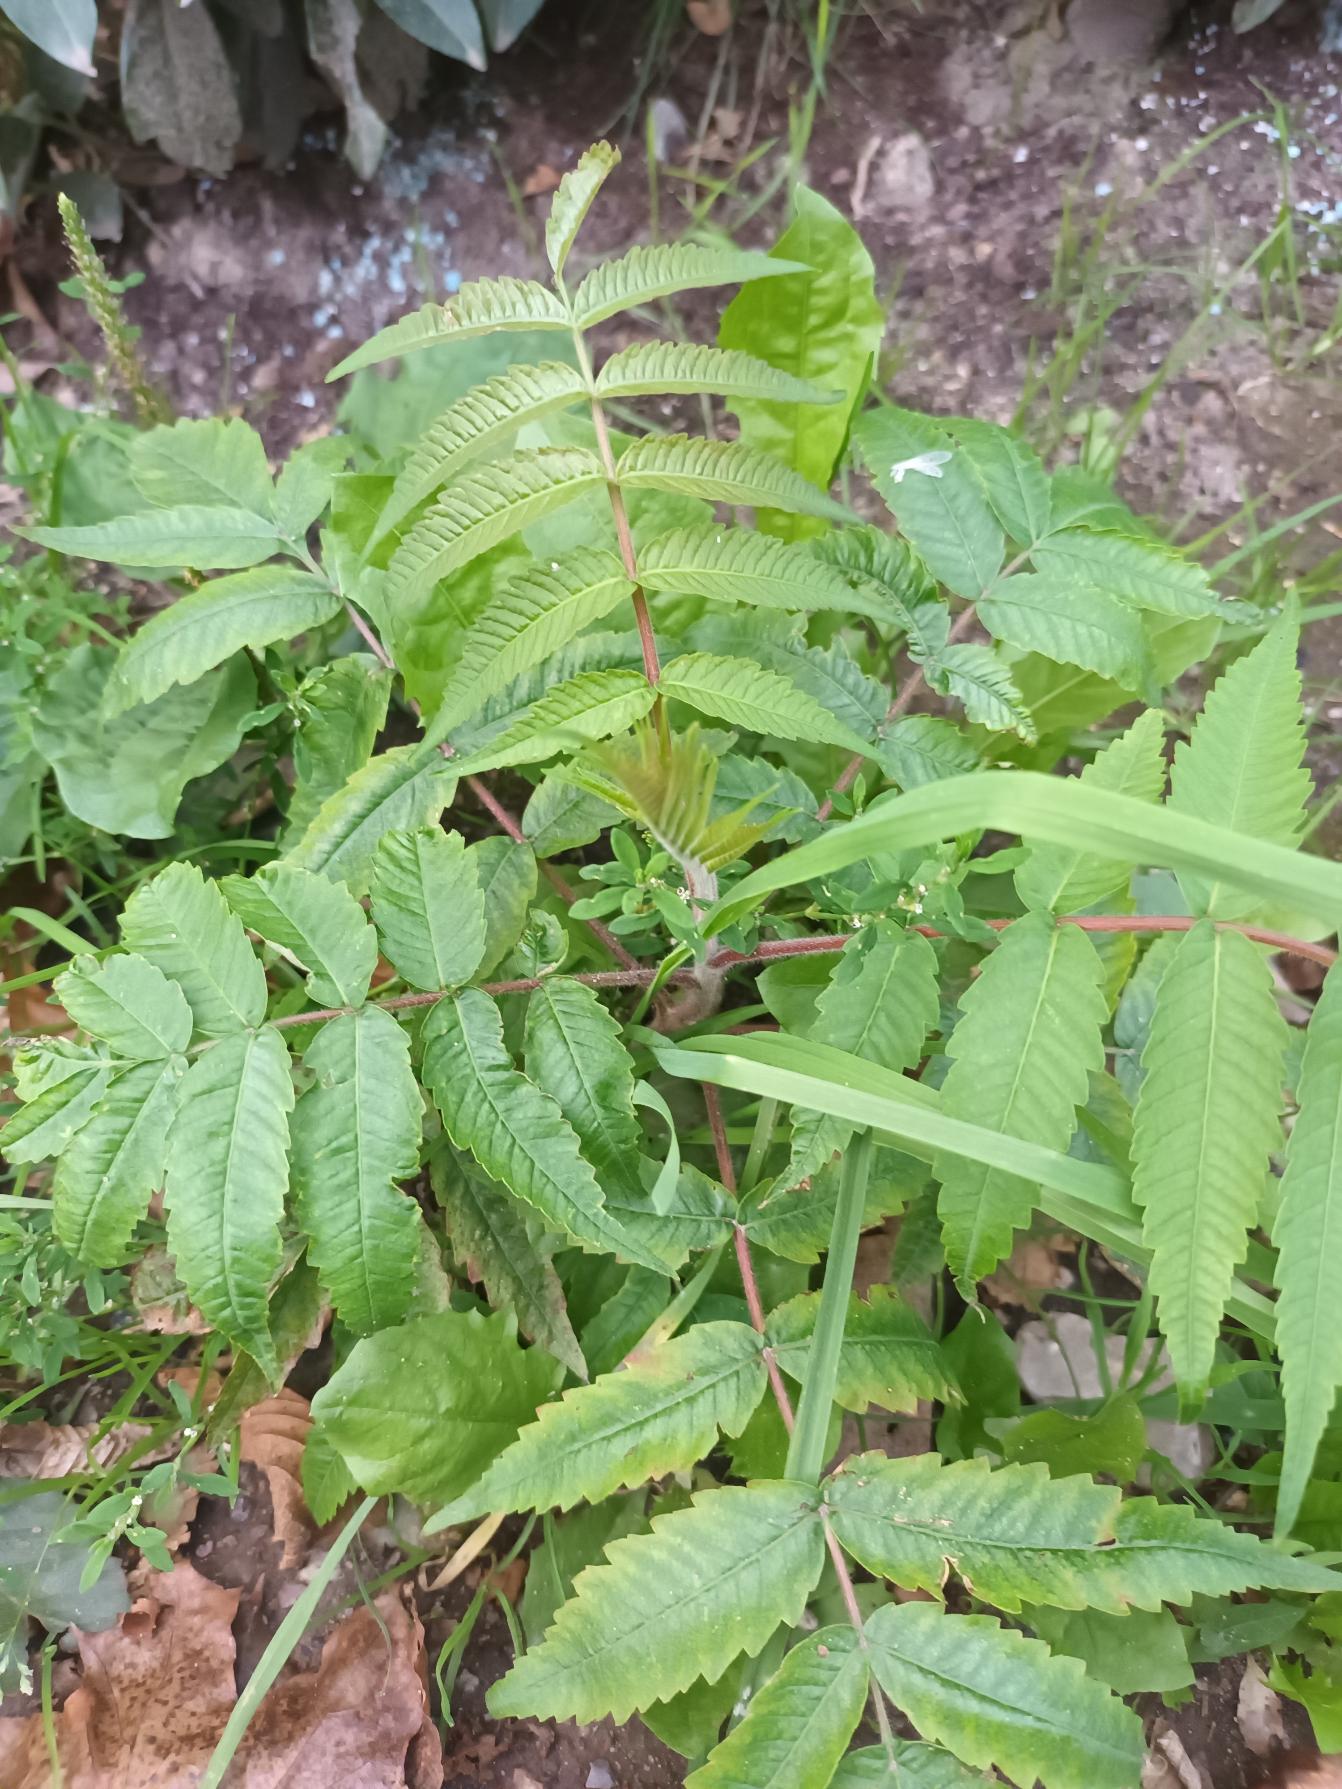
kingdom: Plantae
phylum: Tracheophyta
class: Magnoliopsida
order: Sapindales
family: Anacardiaceae
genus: Rhus
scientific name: Rhus typhina
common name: Hjortetaktræ
